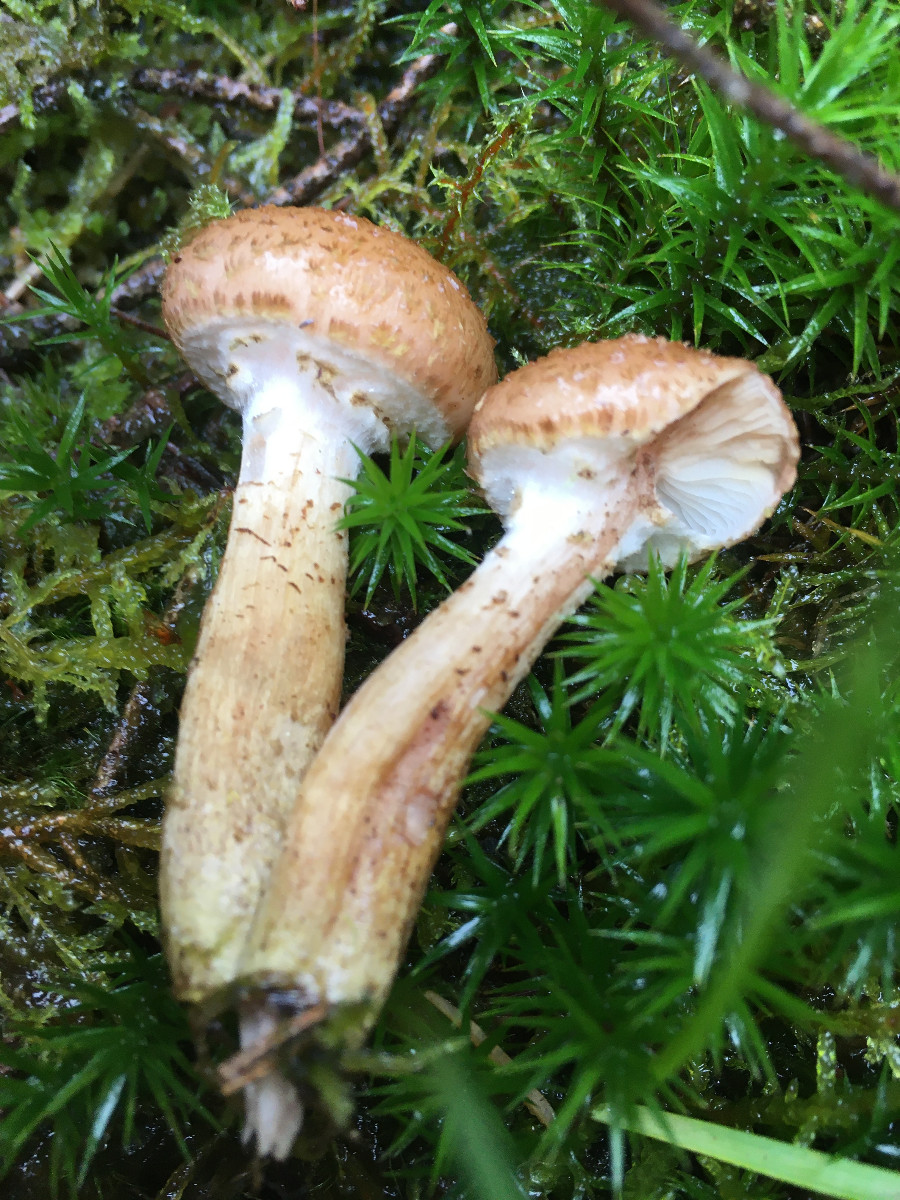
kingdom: Fungi
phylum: Basidiomycota
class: Agaricomycetes
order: Agaricales
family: Physalacriaceae
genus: Armillaria
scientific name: Armillaria ostoyae
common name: mørk honningsvamp
